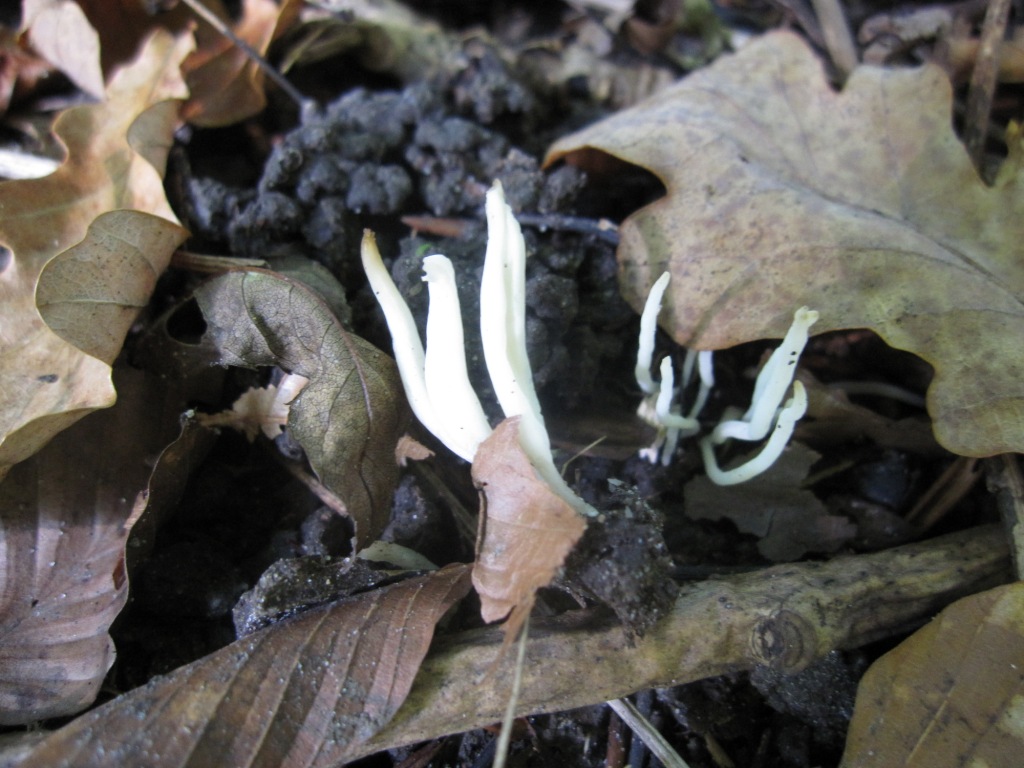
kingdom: Fungi
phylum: Basidiomycota
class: Agaricomycetes
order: Agaricales
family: Clavariaceae
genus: Clavaria
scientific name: Clavaria falcata
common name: hvid køllesvamp
